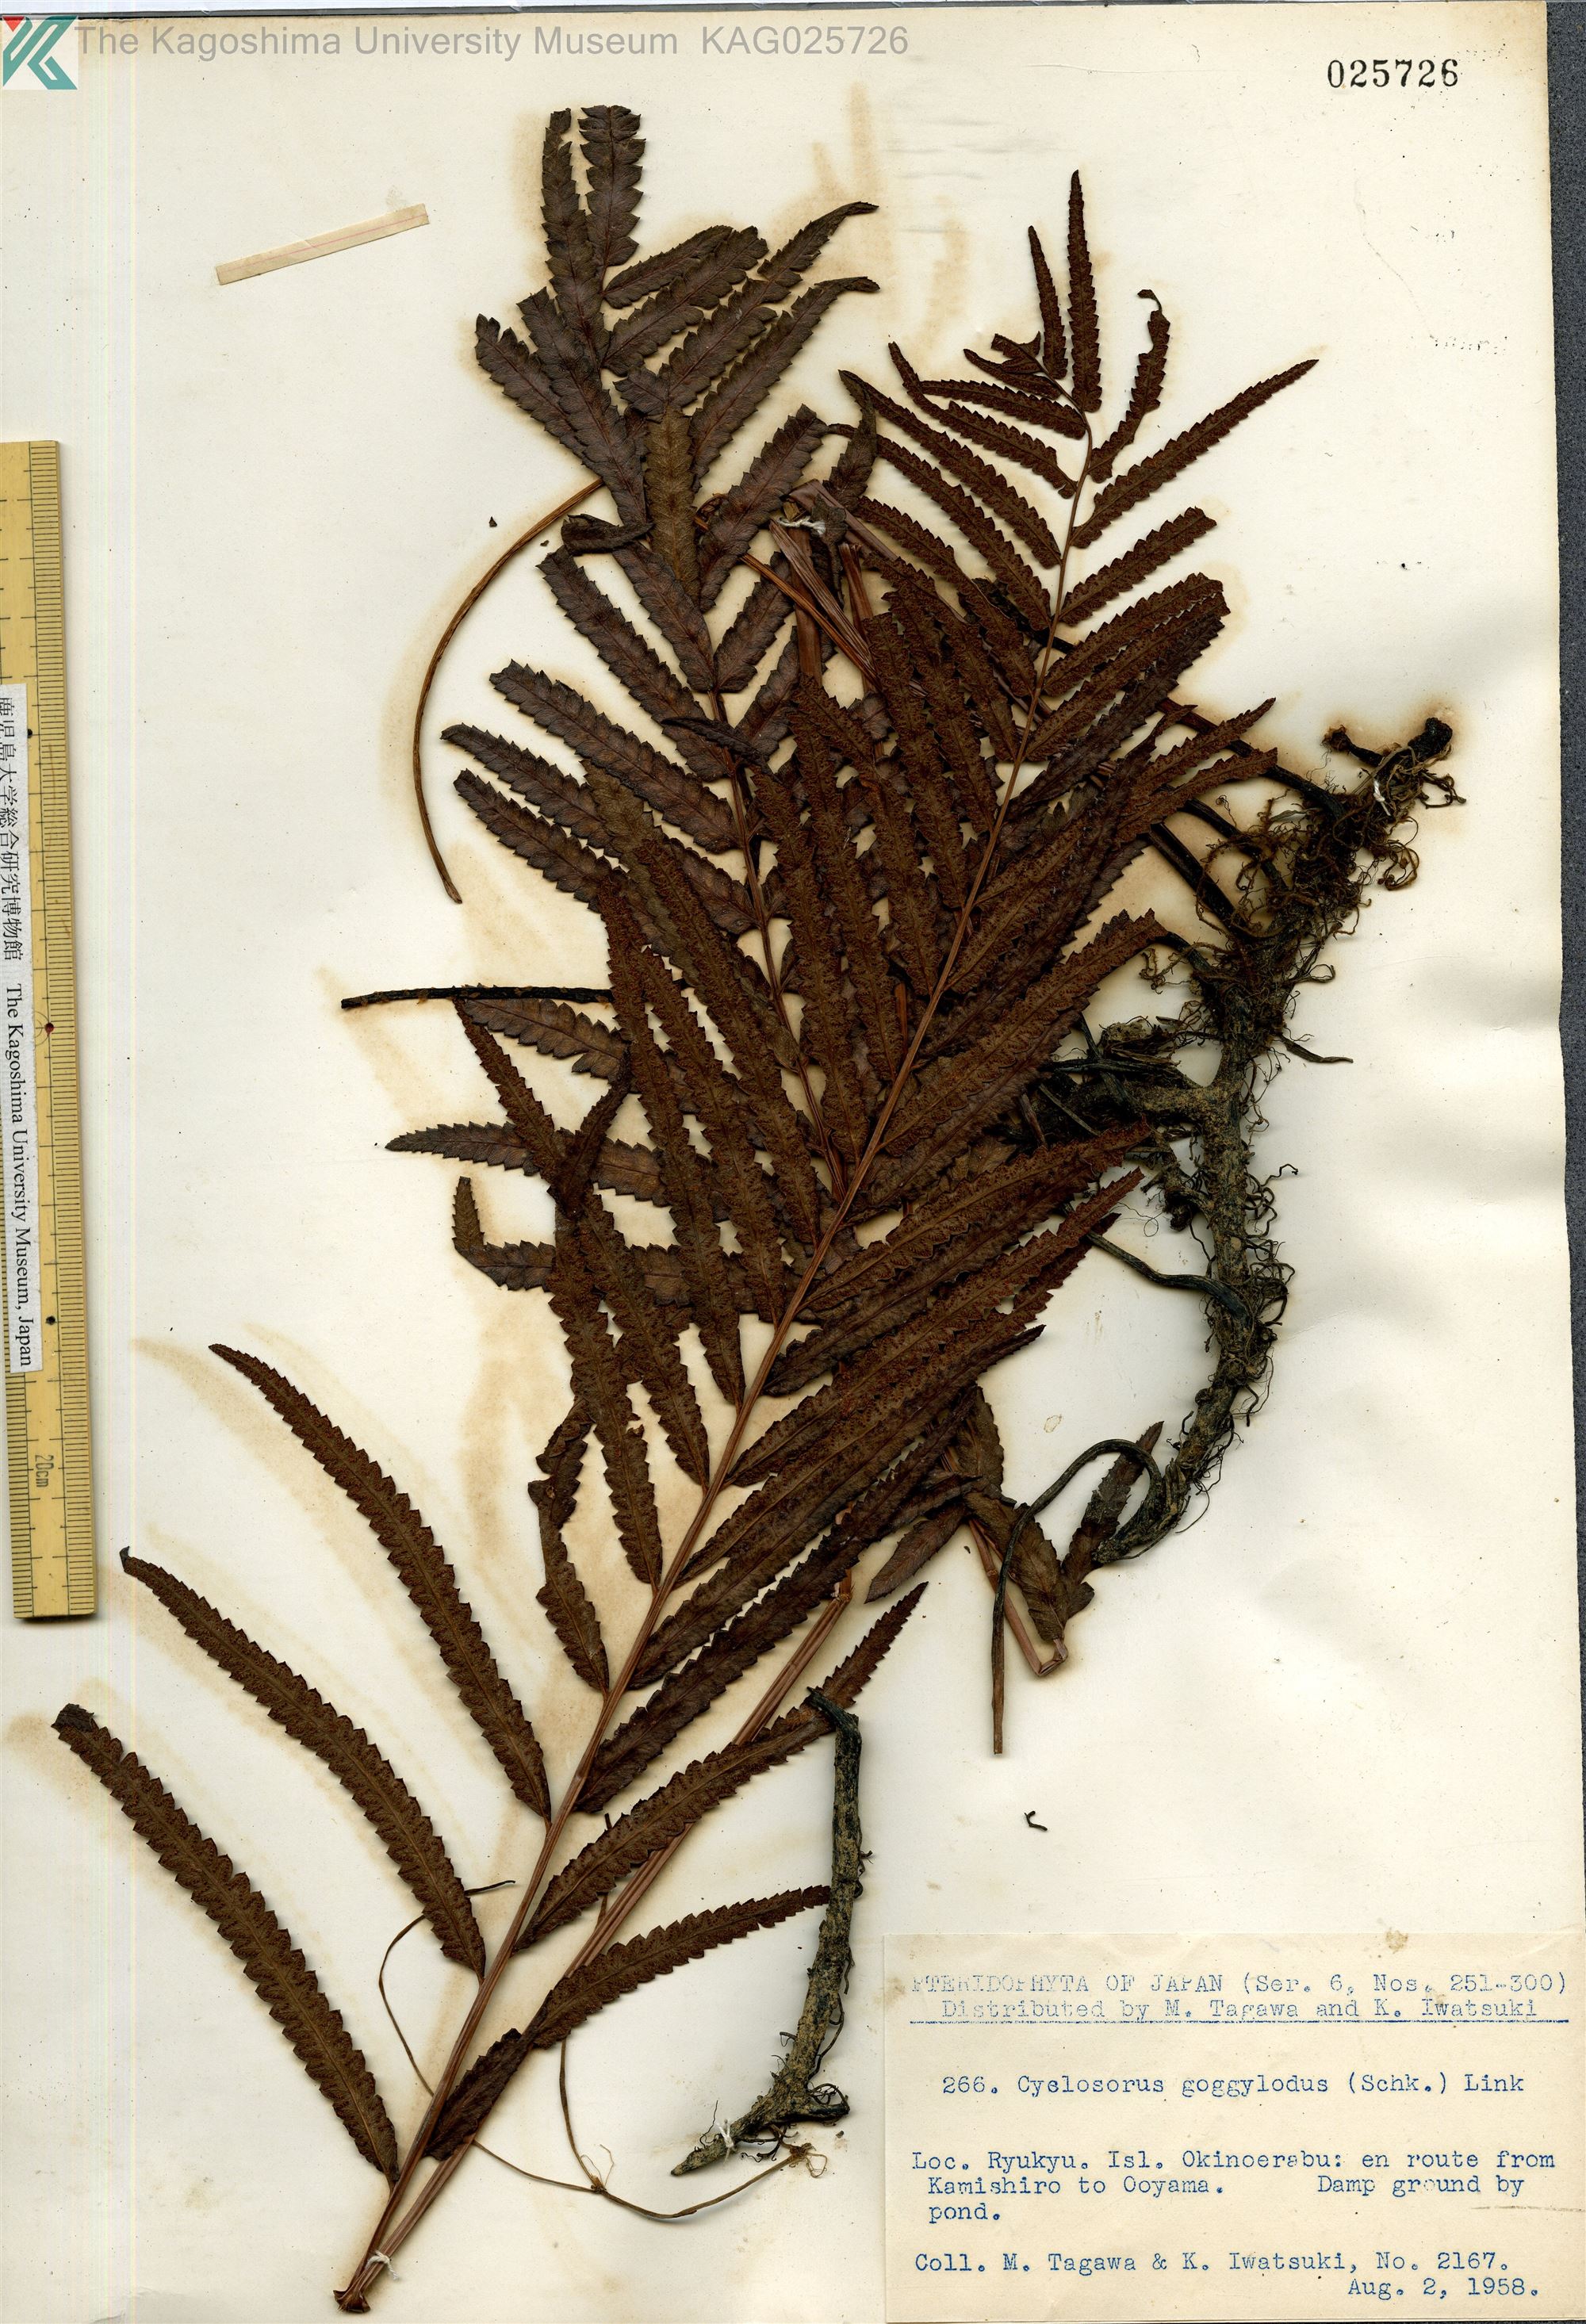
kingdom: Plantae
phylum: Tracheophyta
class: Polypodiopsida
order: Polypodiales
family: Thelypteridaceae
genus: Cyclosorus
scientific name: Cyclosorus interruptus
